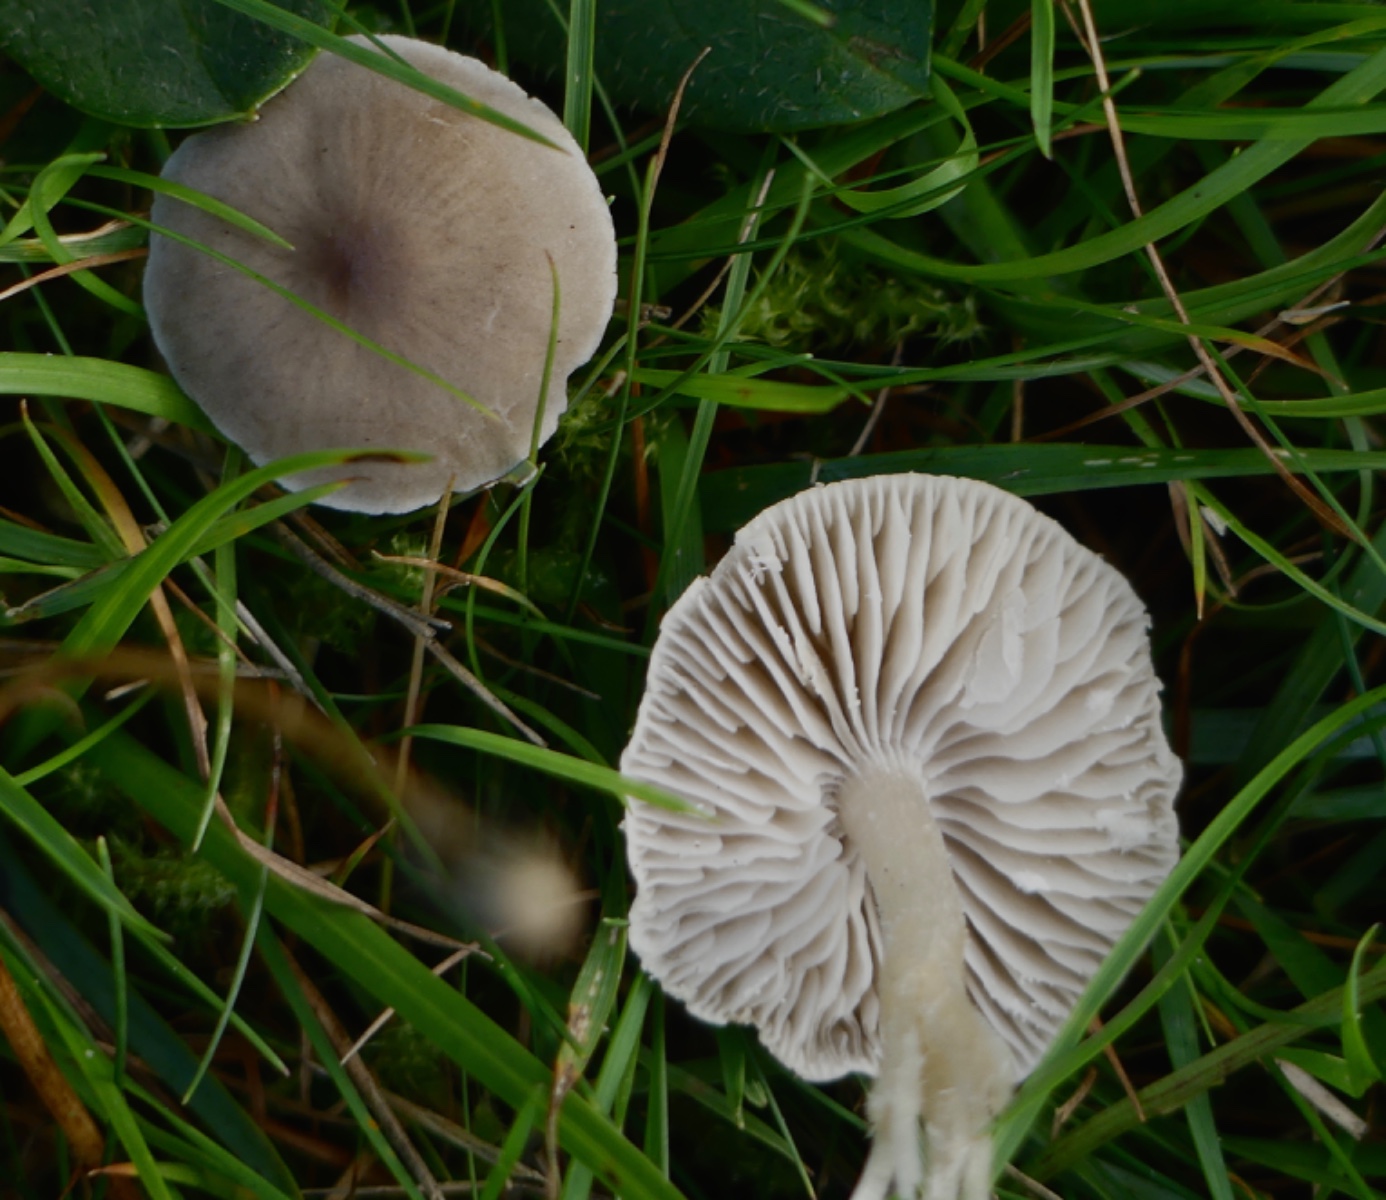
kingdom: Fungi
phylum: Basidiomycota
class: Agaricomycetes
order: Agaricales
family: Tricholomataceae
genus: Dermoloma
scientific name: Dermoloma cuneifolium
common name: eng-nonnehat
